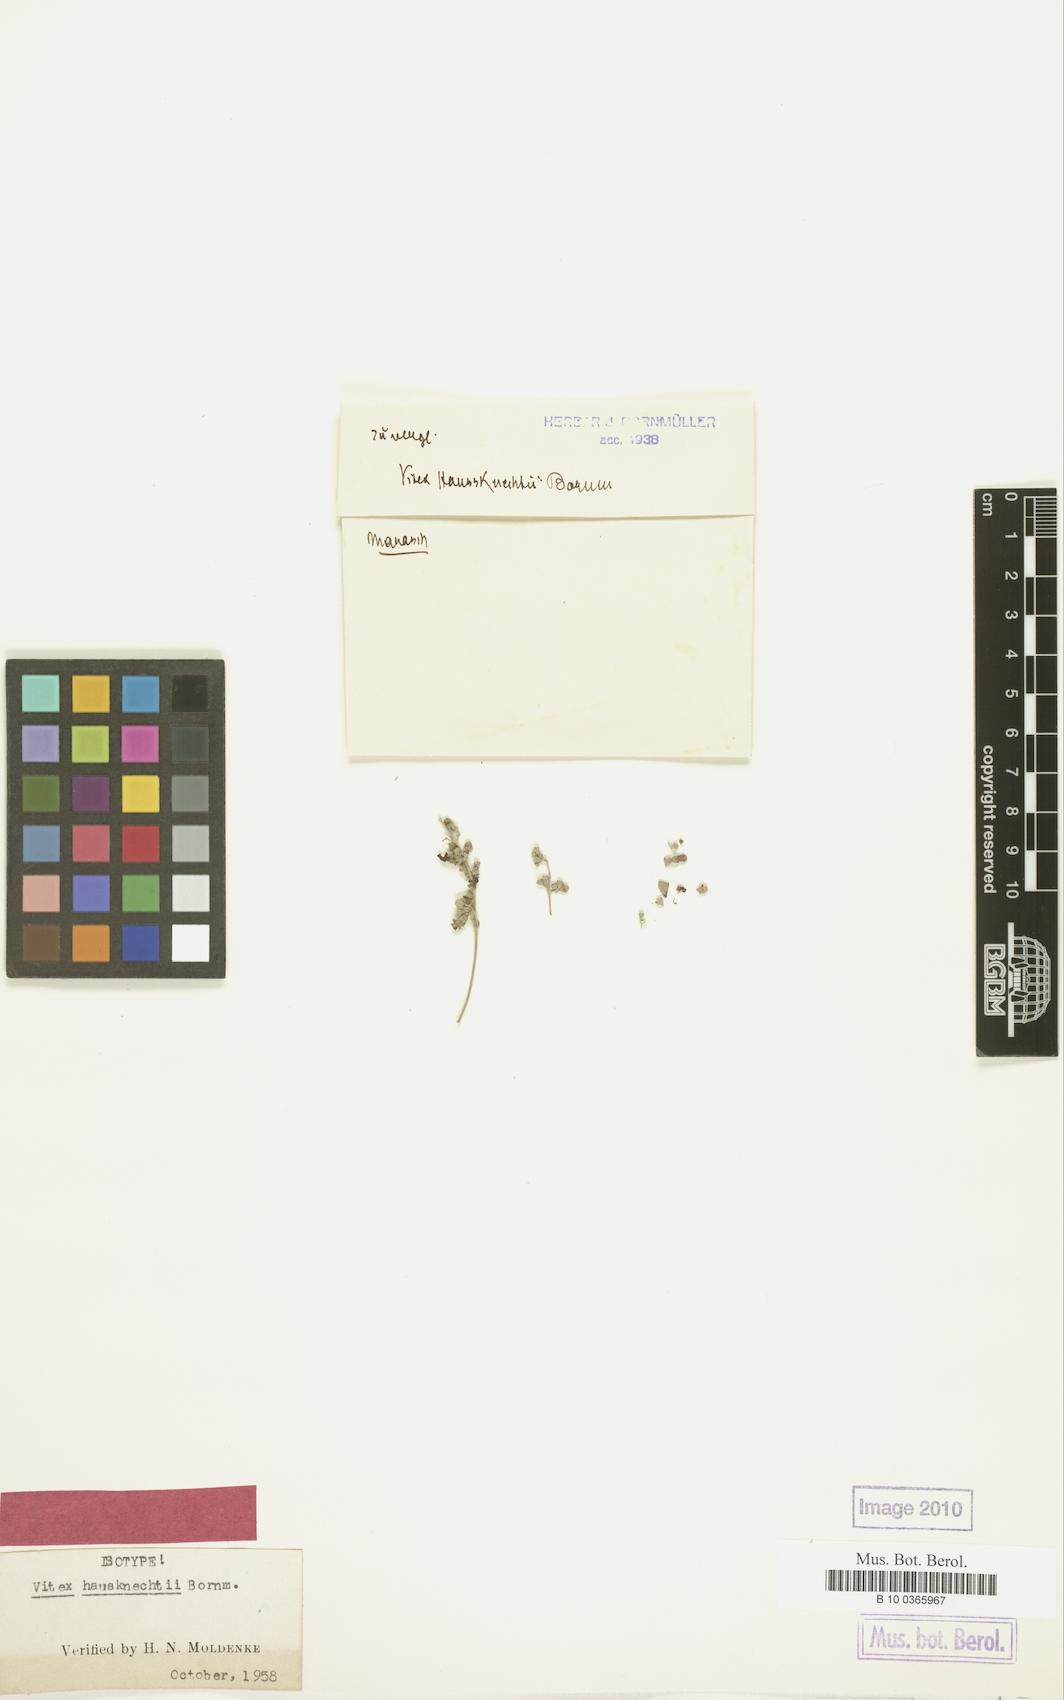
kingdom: Plantae
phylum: Tracheophyta
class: Magnoliopsida
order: Lamiales
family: Lamiaceae
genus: Vitex
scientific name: Vitex haussknechtii
